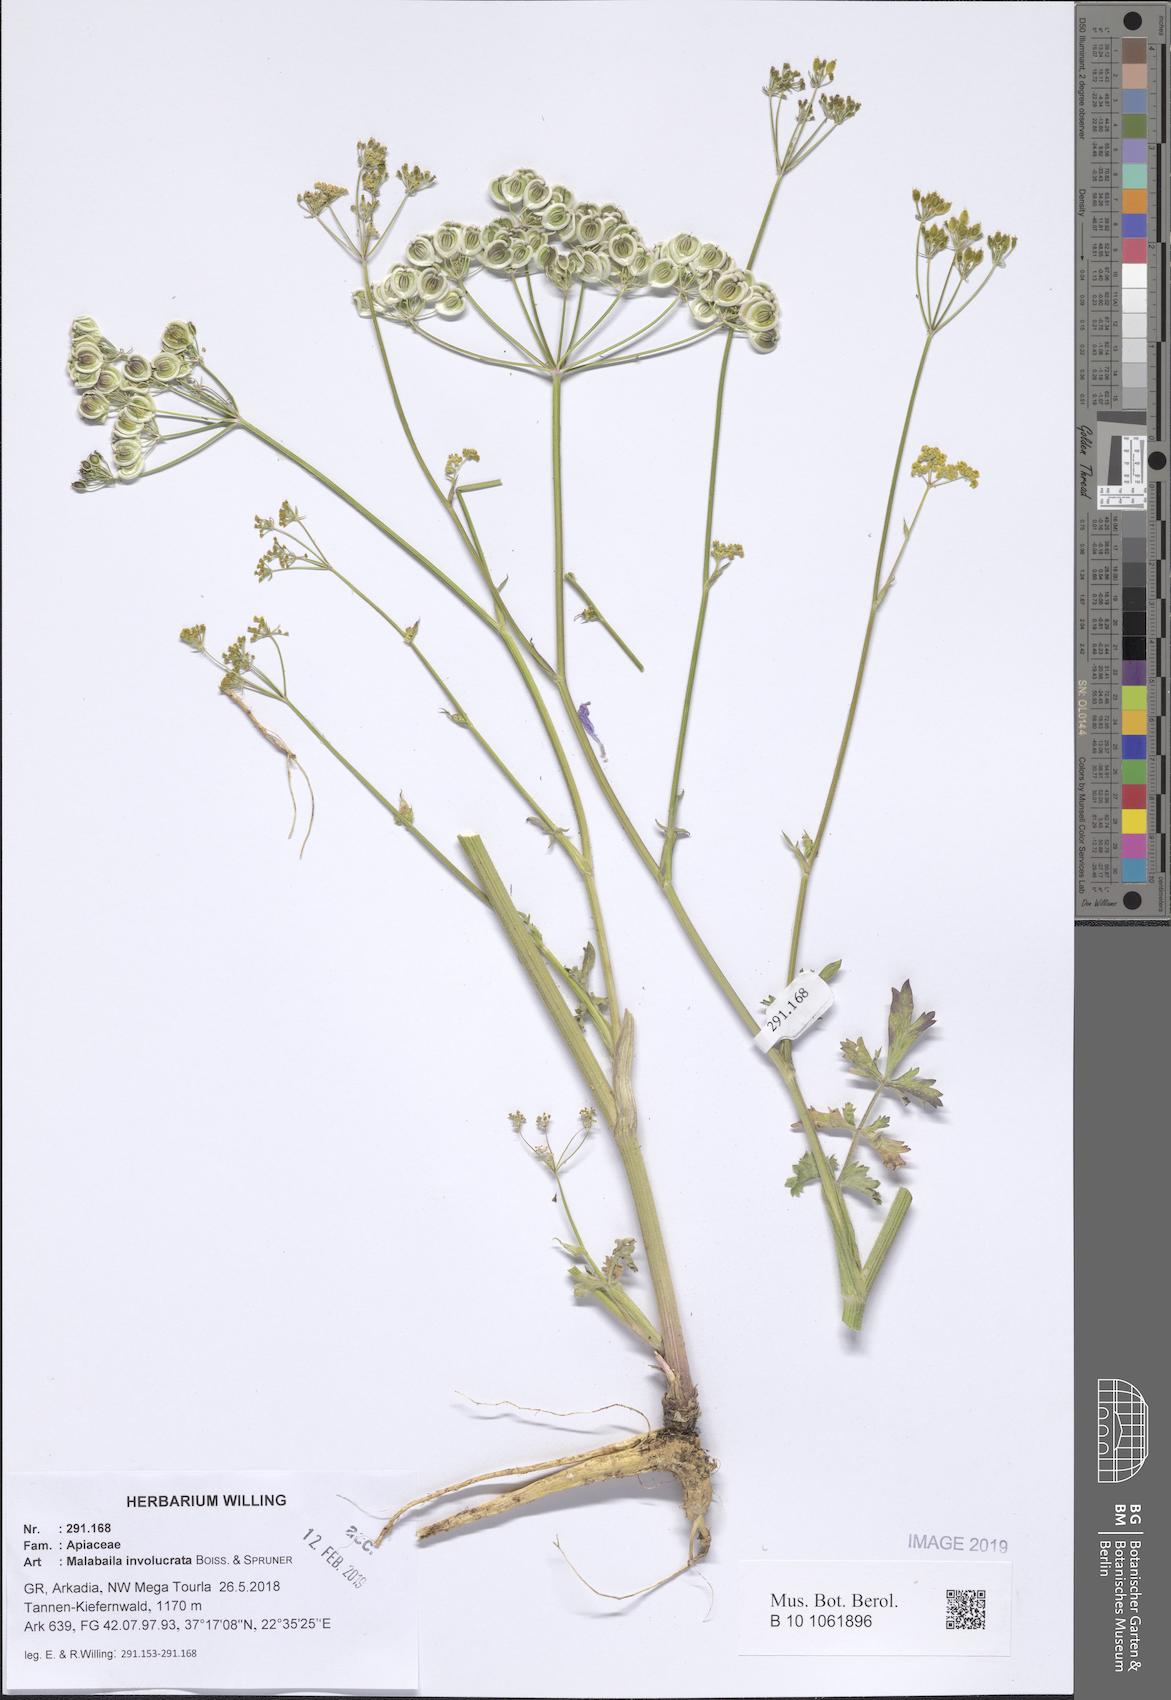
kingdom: Plantae
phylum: Tracheophyta
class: Magnoliopsida
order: Apiales
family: Apiaceae
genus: Leiotulus
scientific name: Leiotulus involucratus
